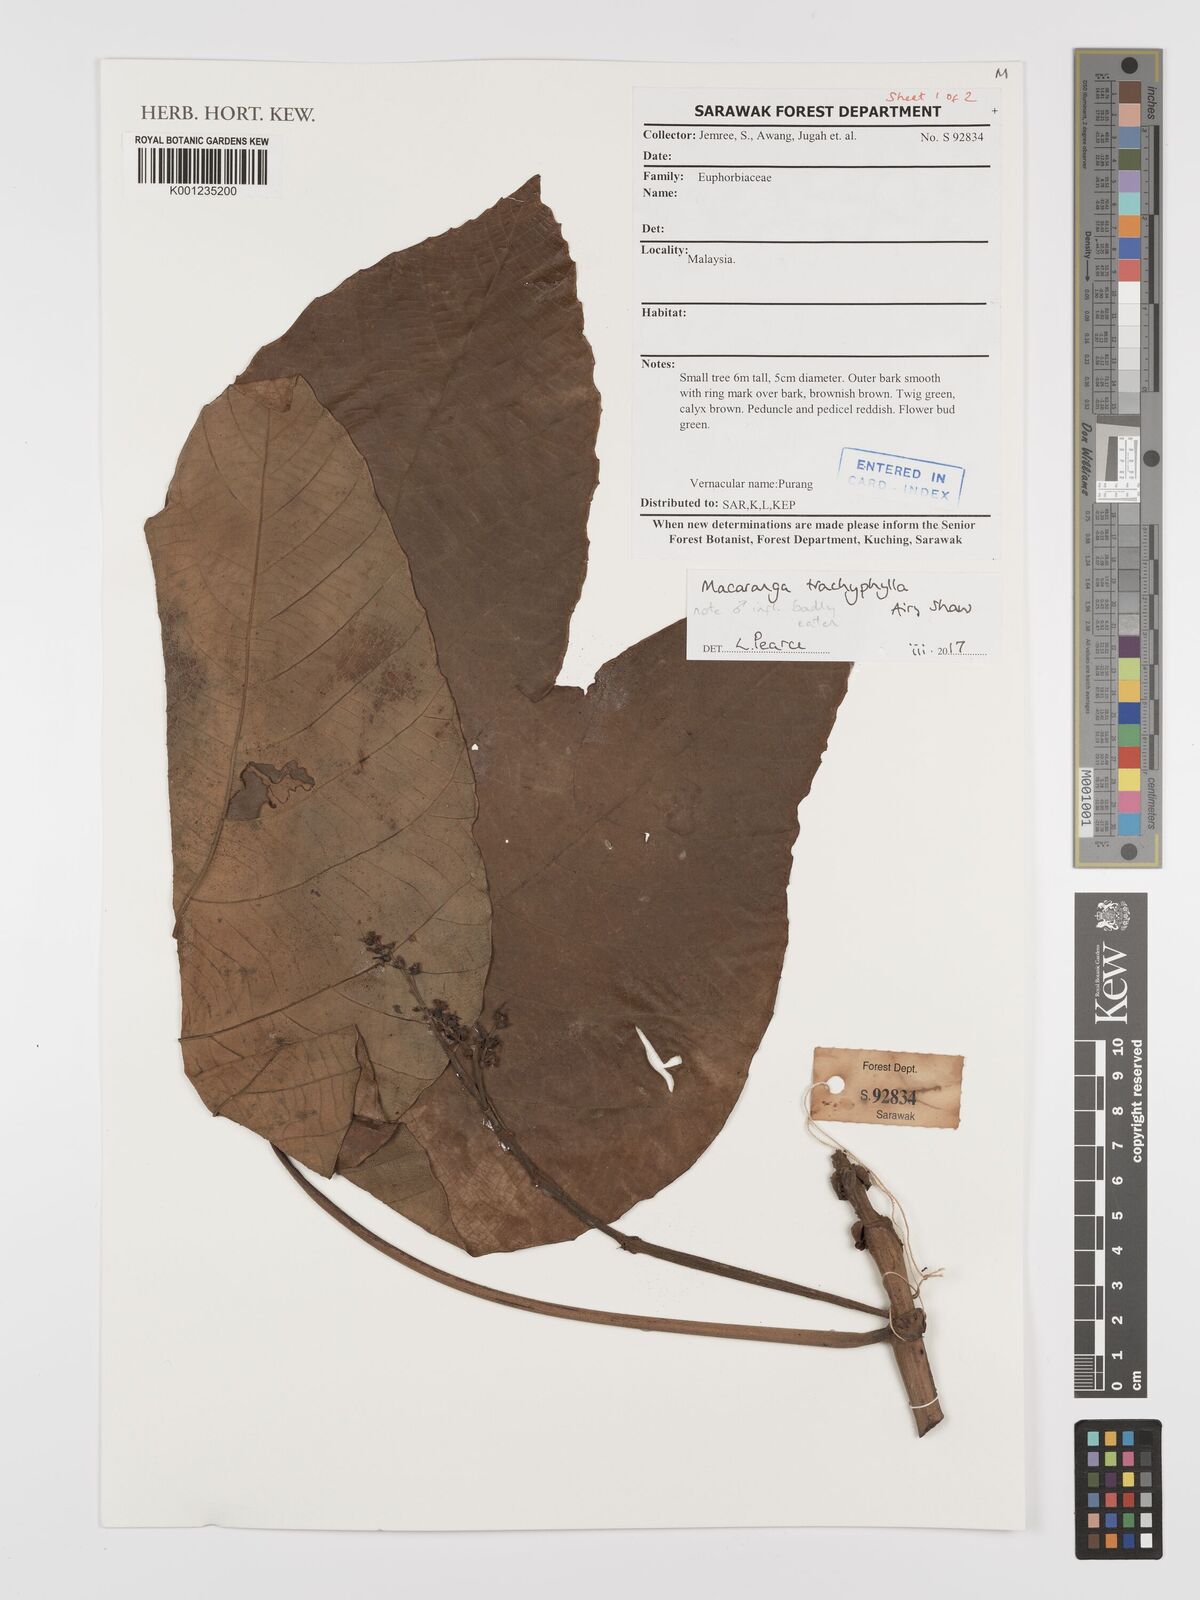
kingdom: Plantae
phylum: Tracheophyta
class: Magnoliopsida
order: Malpighiales
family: Euphorbiaceae
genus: Macaranga
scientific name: Macaranga trachyphylla
